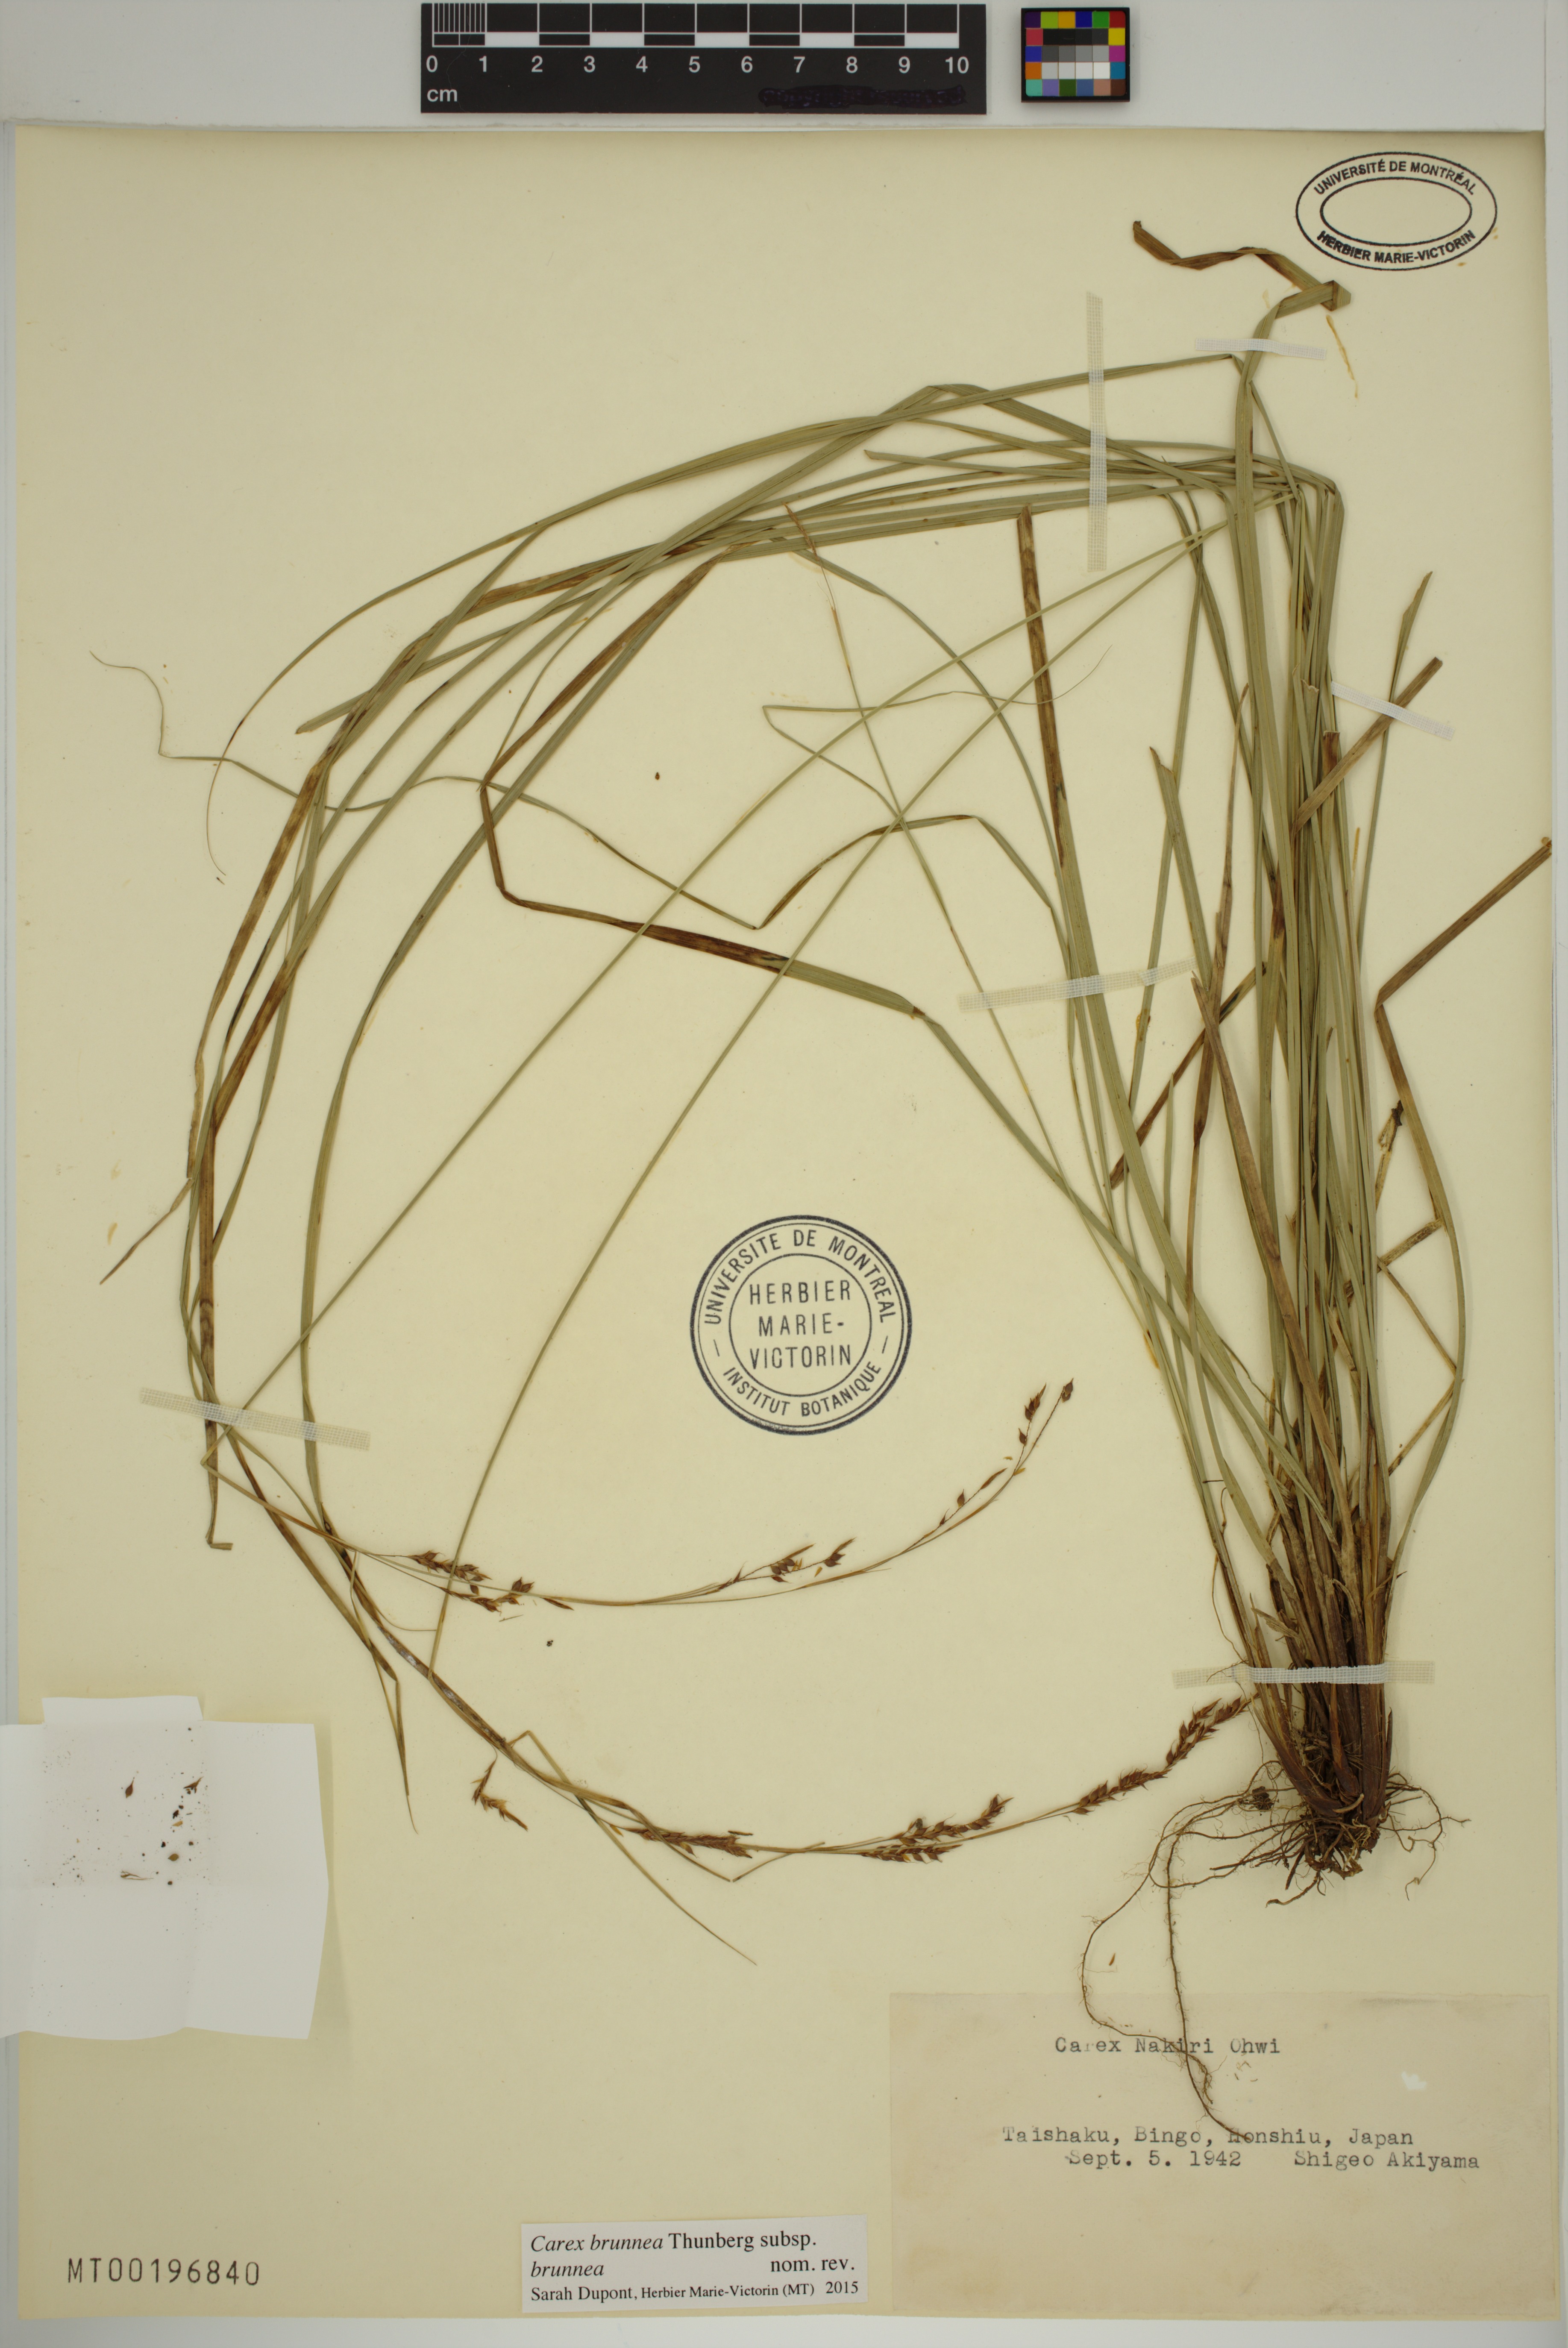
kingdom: Plantae
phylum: Tracheophyta
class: Liliopsida
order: Poales
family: Cyperaceae
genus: Carex
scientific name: Carex brunnea
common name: Greater brown sedge
